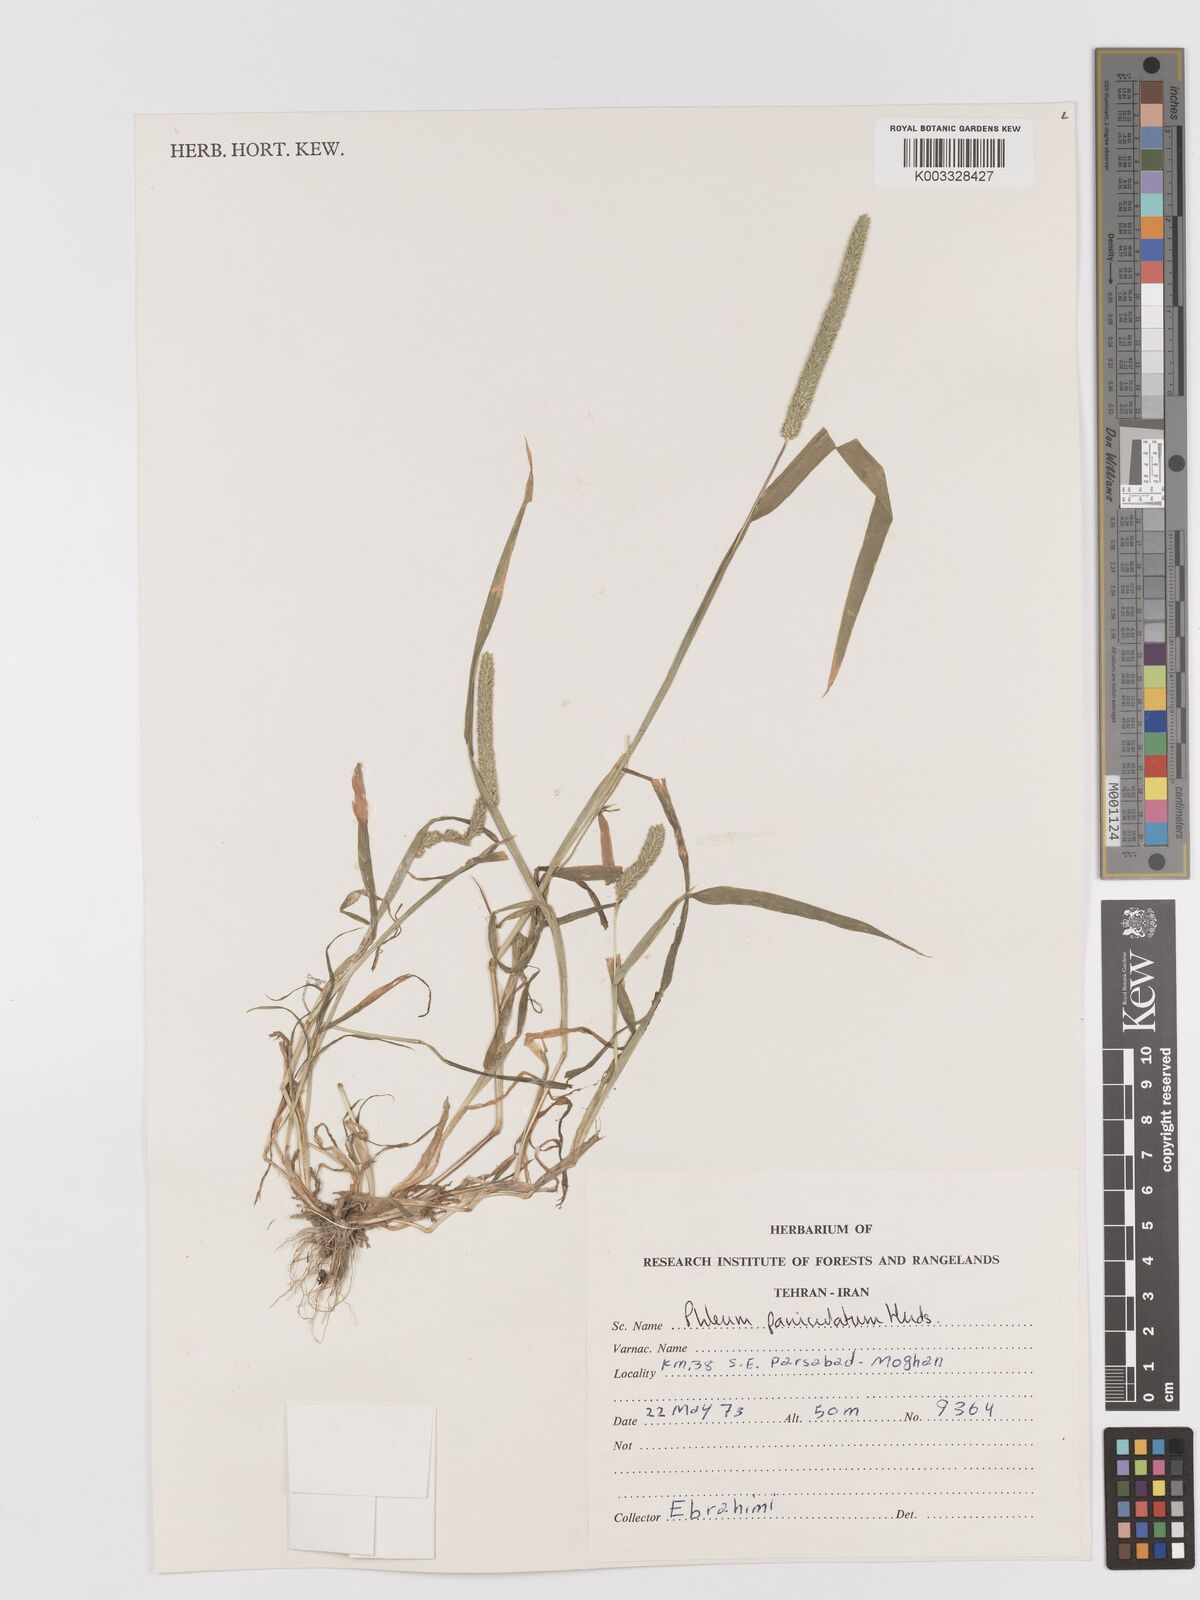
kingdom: Plantae
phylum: Tracheophyta
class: Liliopsida
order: Poales
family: Poaceae
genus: Phleum
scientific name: Phleum paniculatum
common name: British timothy
